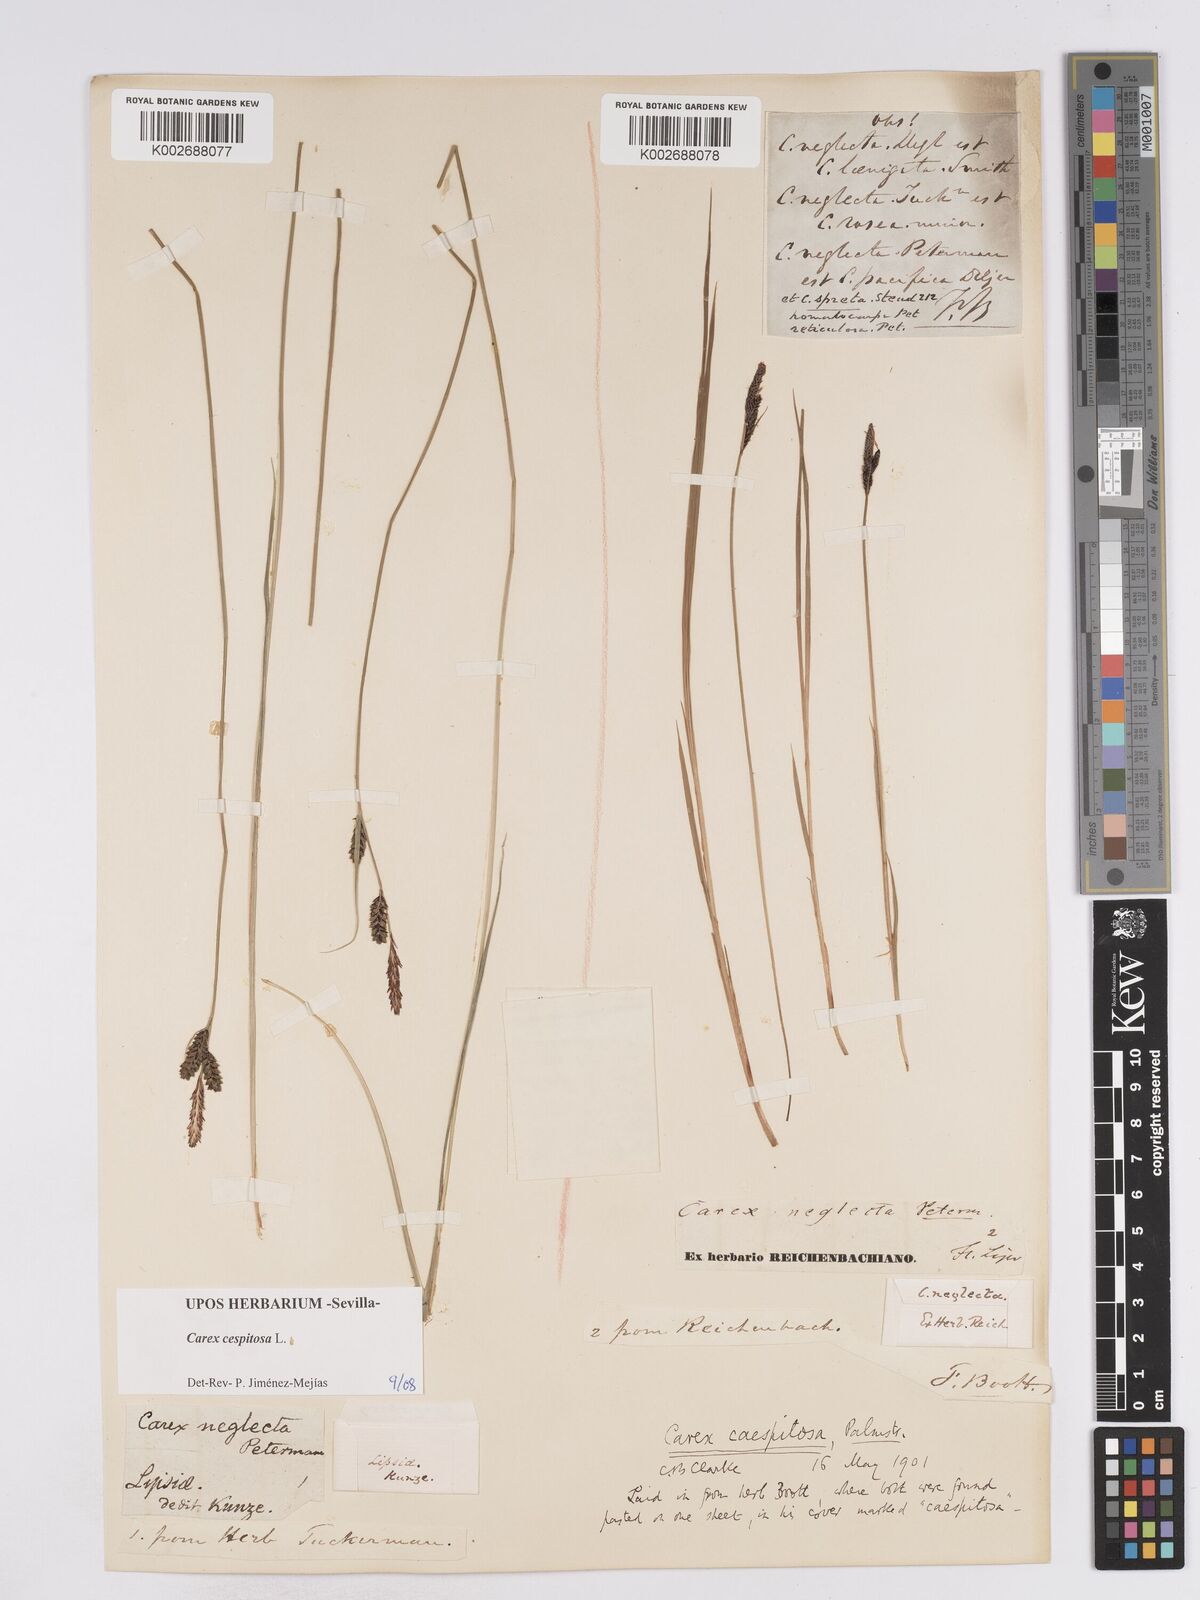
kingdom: Plantae
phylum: Tracheophyta
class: Liliopsida
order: Poales
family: Cyperaceae
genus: Carex
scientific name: Carex
